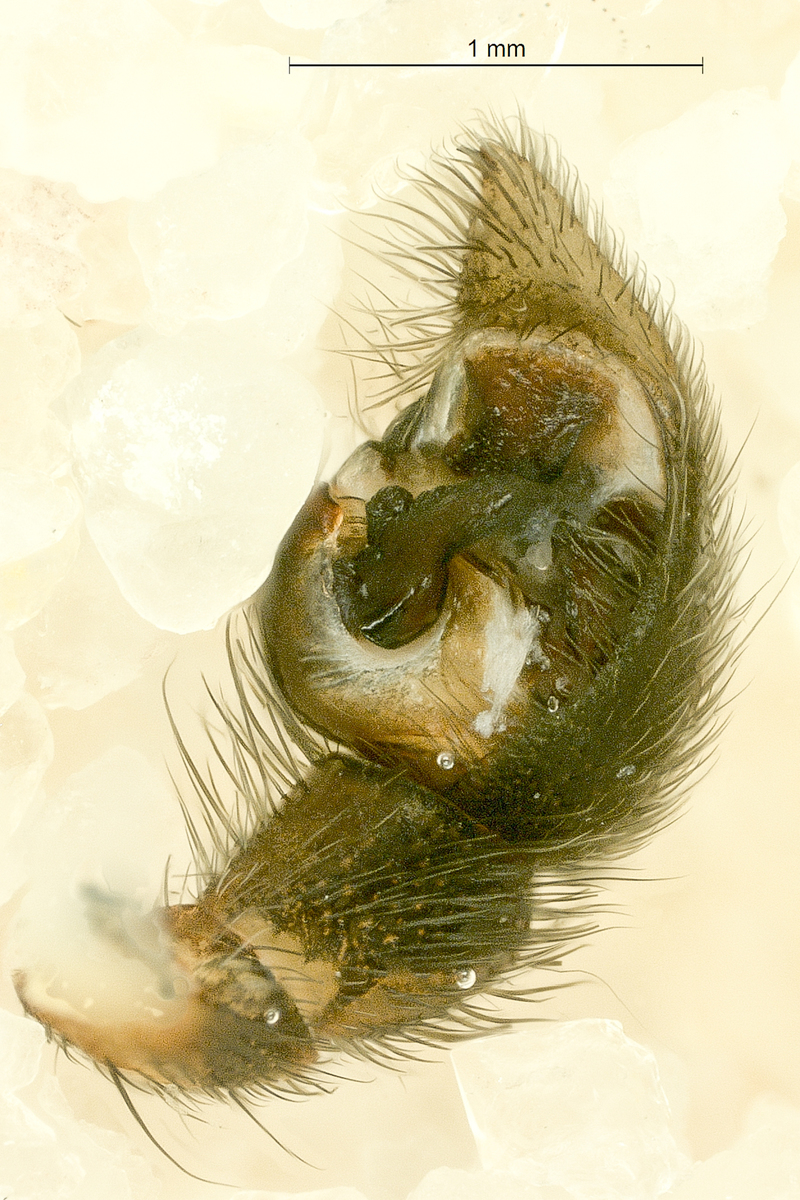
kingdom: Animalia
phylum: Arthropoda
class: Arachnida
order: Araneae
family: Lycosidae
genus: Pardosa
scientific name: Pardosa palustris
